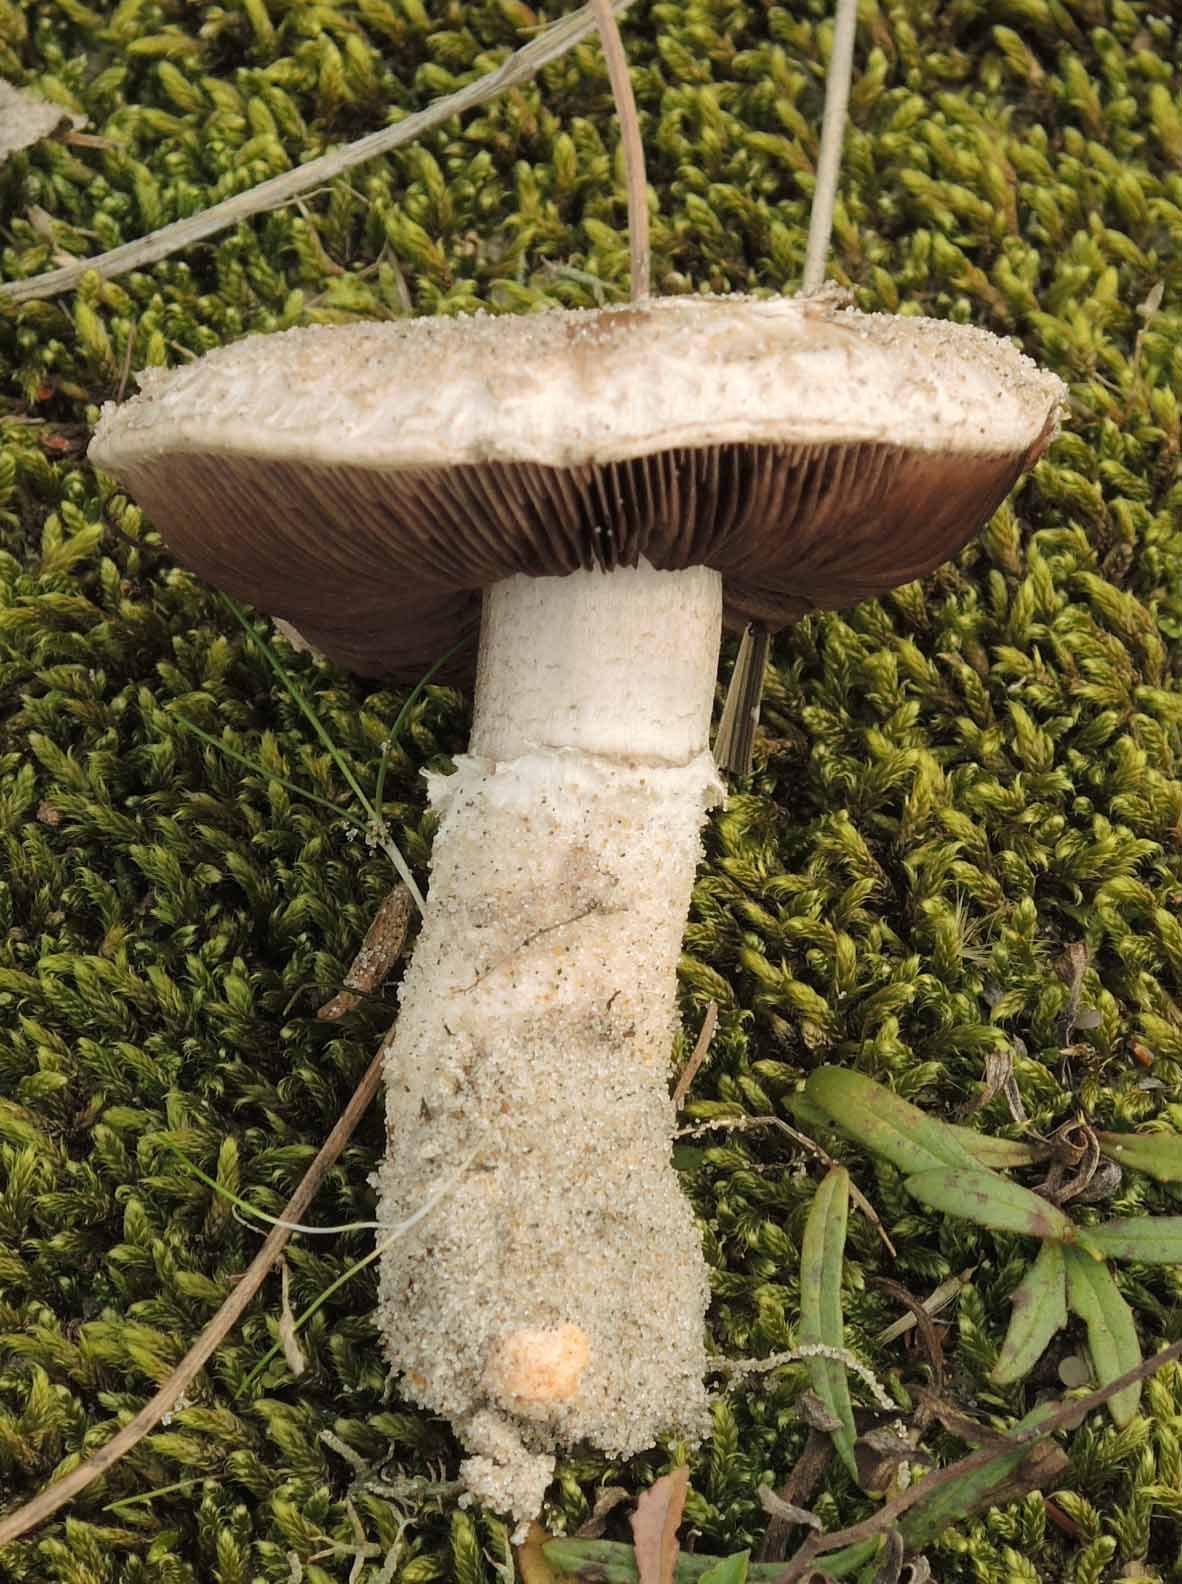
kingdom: Fungi
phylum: Basidiomycota
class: Agaricomycetes
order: Agaricales
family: Agaricaceae
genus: Agaricus
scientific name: Agaricus devoniensis
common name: klit-champignon
